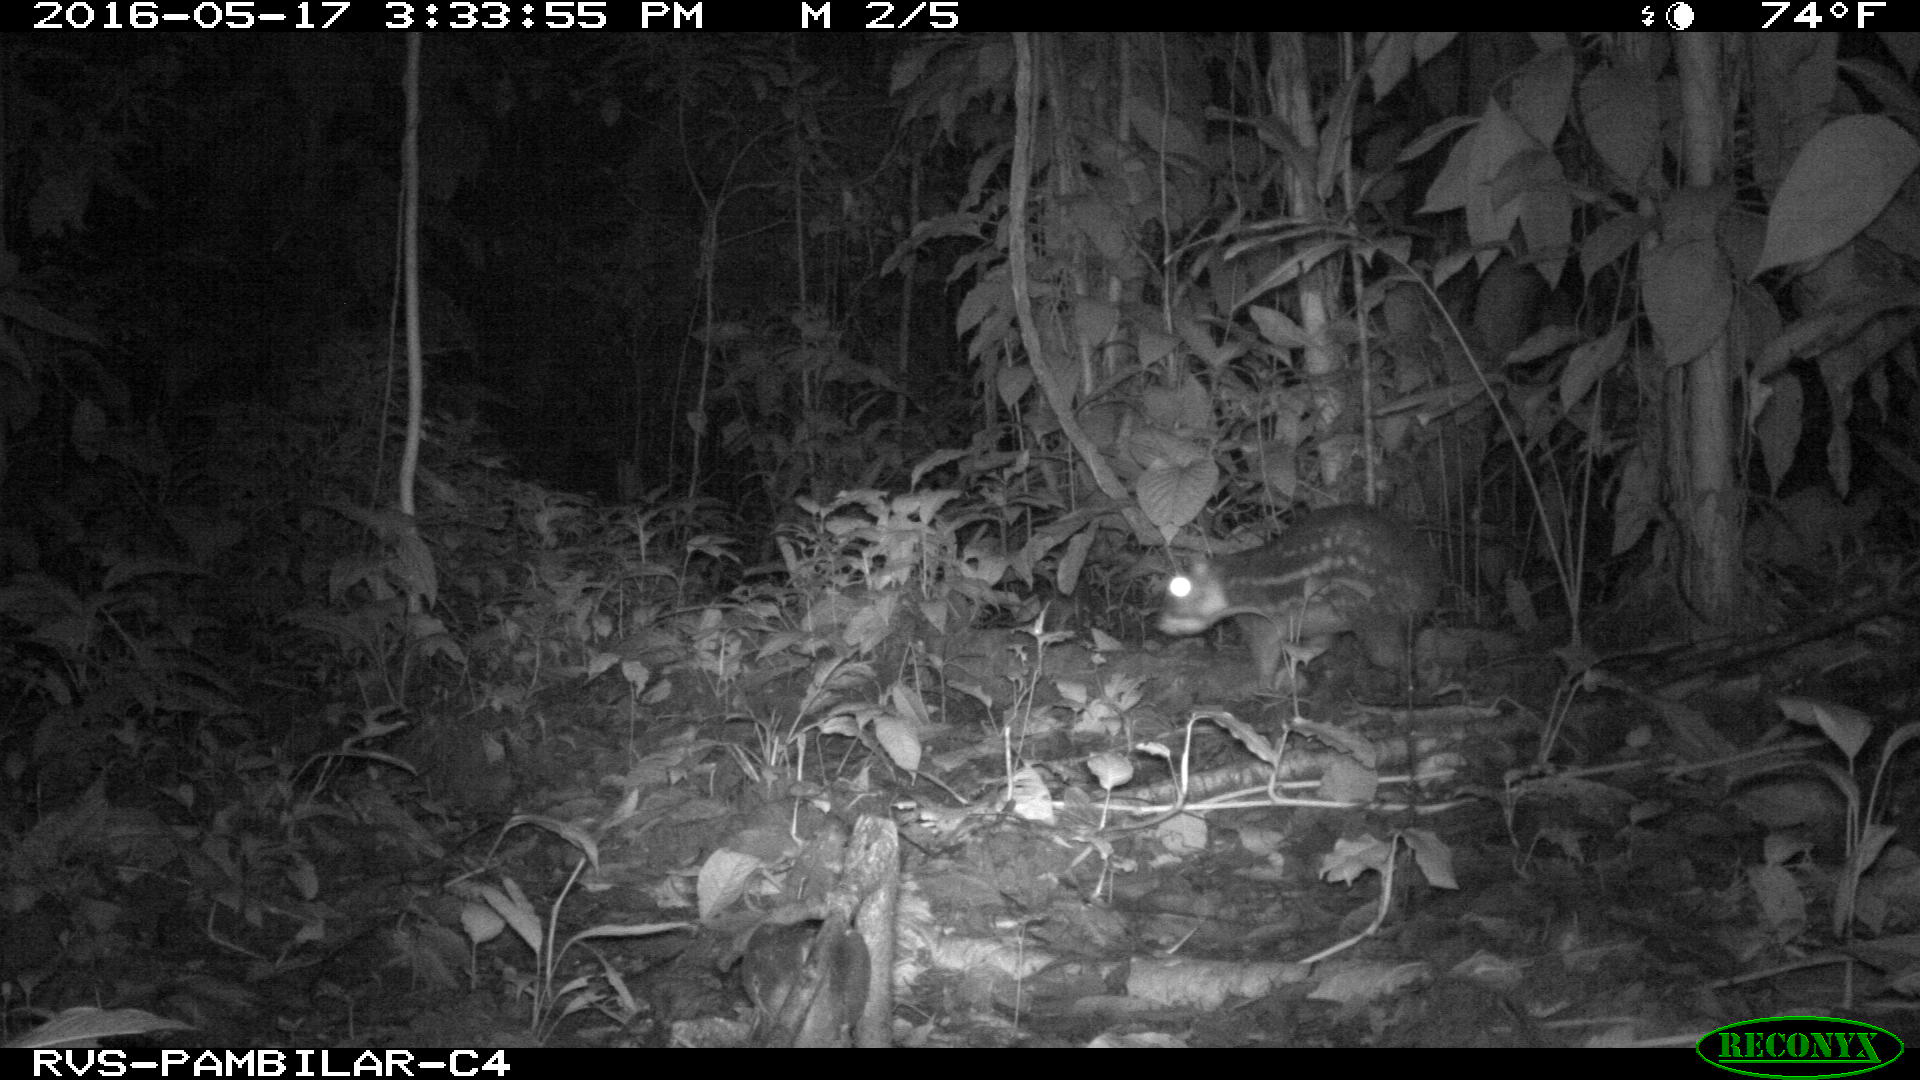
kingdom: Animalia
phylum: Chordata
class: Mammalia
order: Rodentia
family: Cuniculidae
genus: Cuniculus
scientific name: Cuniculus paca
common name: Lowland paca
